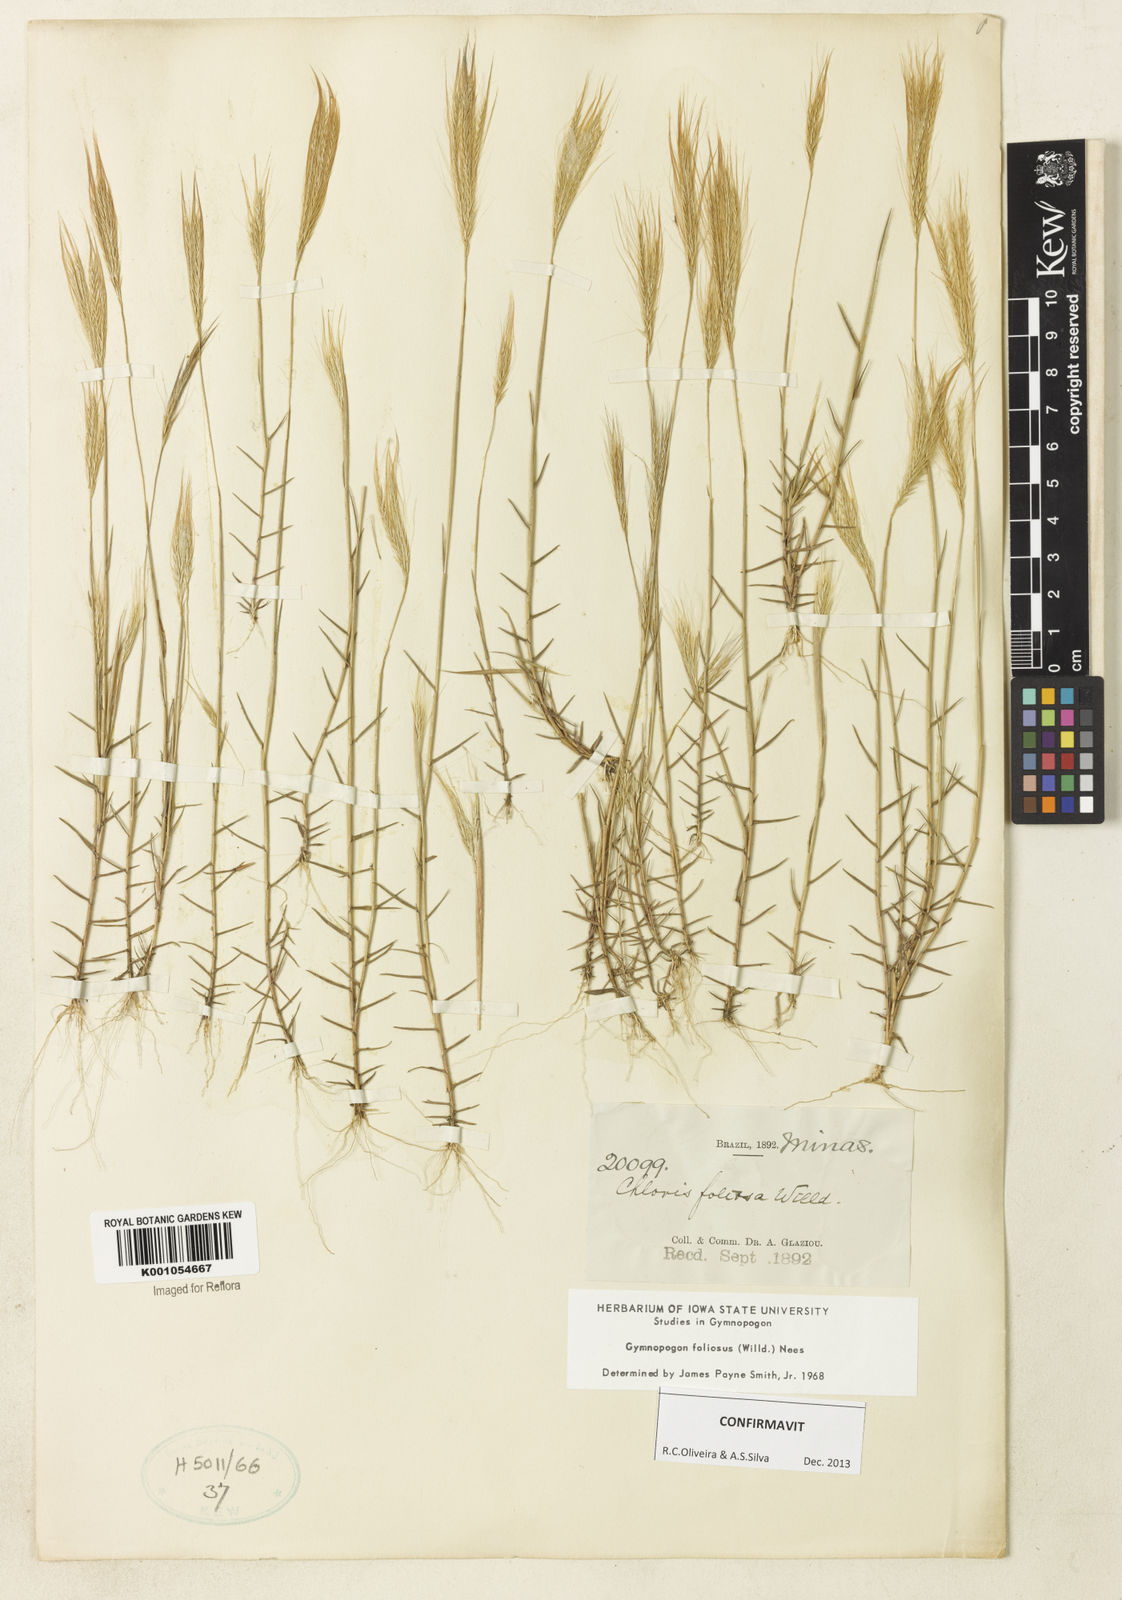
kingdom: Plantae
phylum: Tracheophyta
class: Liliopsida
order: Poales
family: Poaceae
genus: Gymnopogon
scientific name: Gymnopogon foliosus
